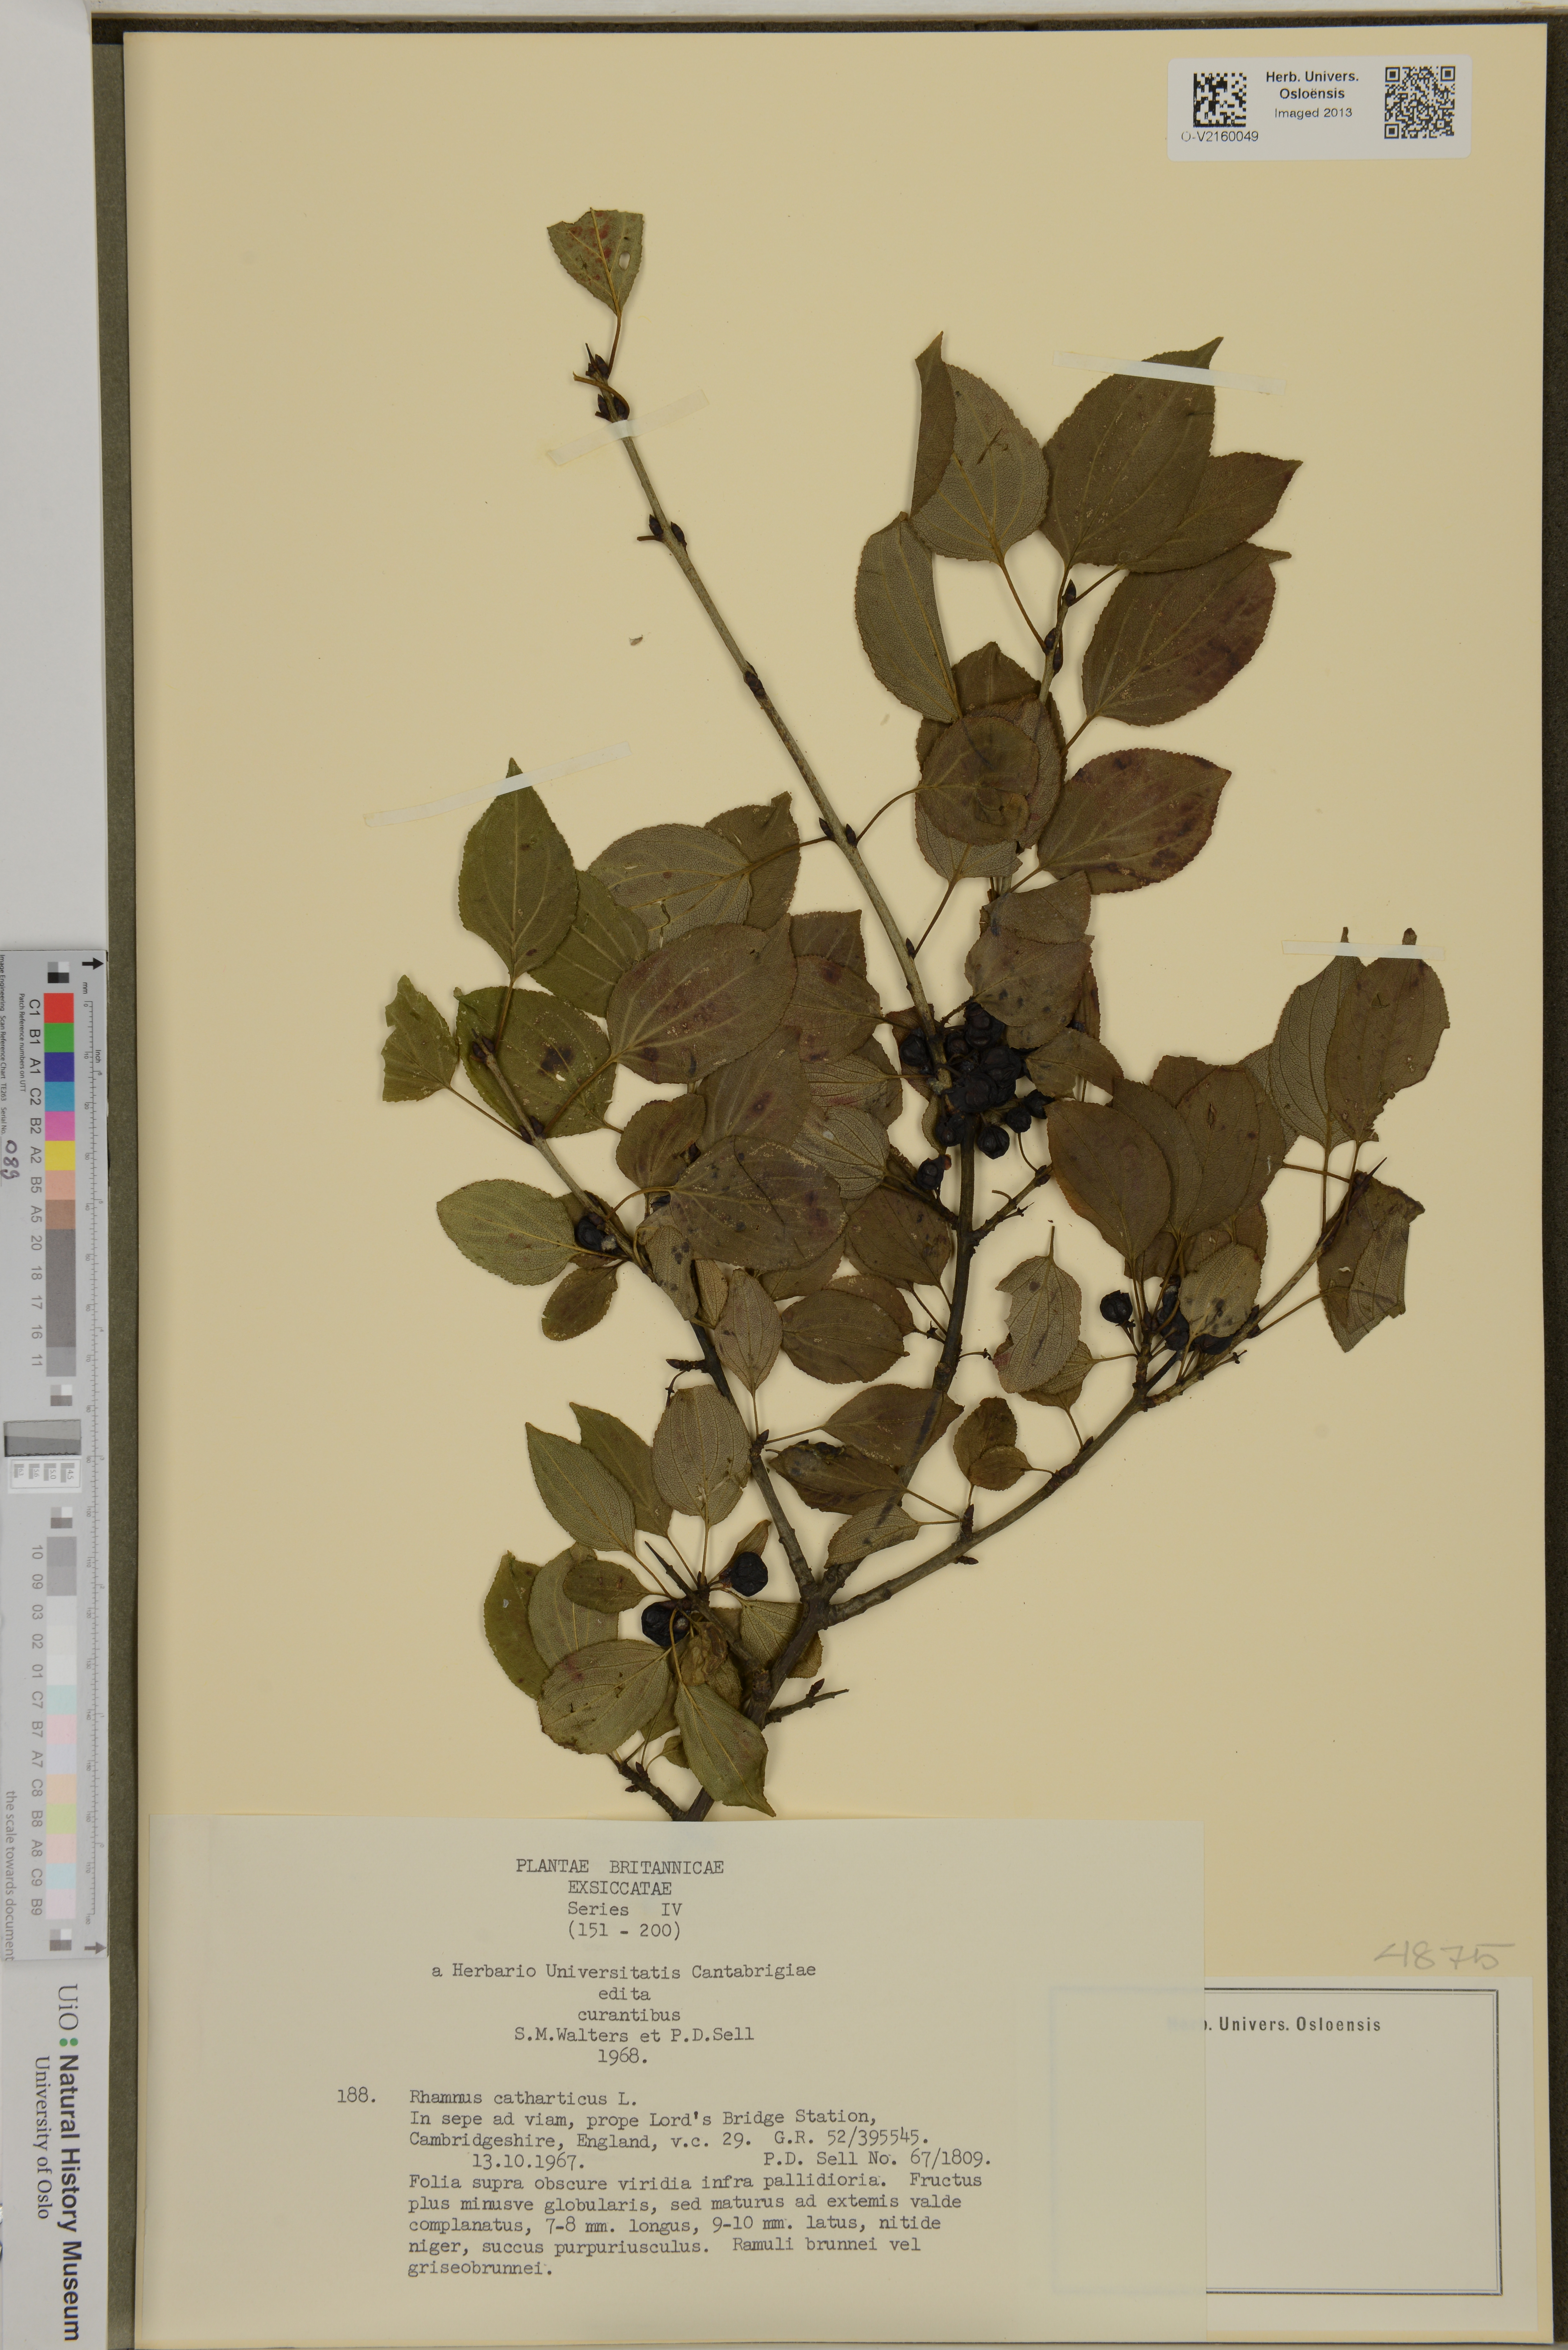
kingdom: Plantae
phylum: Tracheophyta
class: Magnoliopsida
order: Rosales
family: Rhamnaceae
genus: Rhamnus
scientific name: Rhamnus cathartica
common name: Common buckthorn
